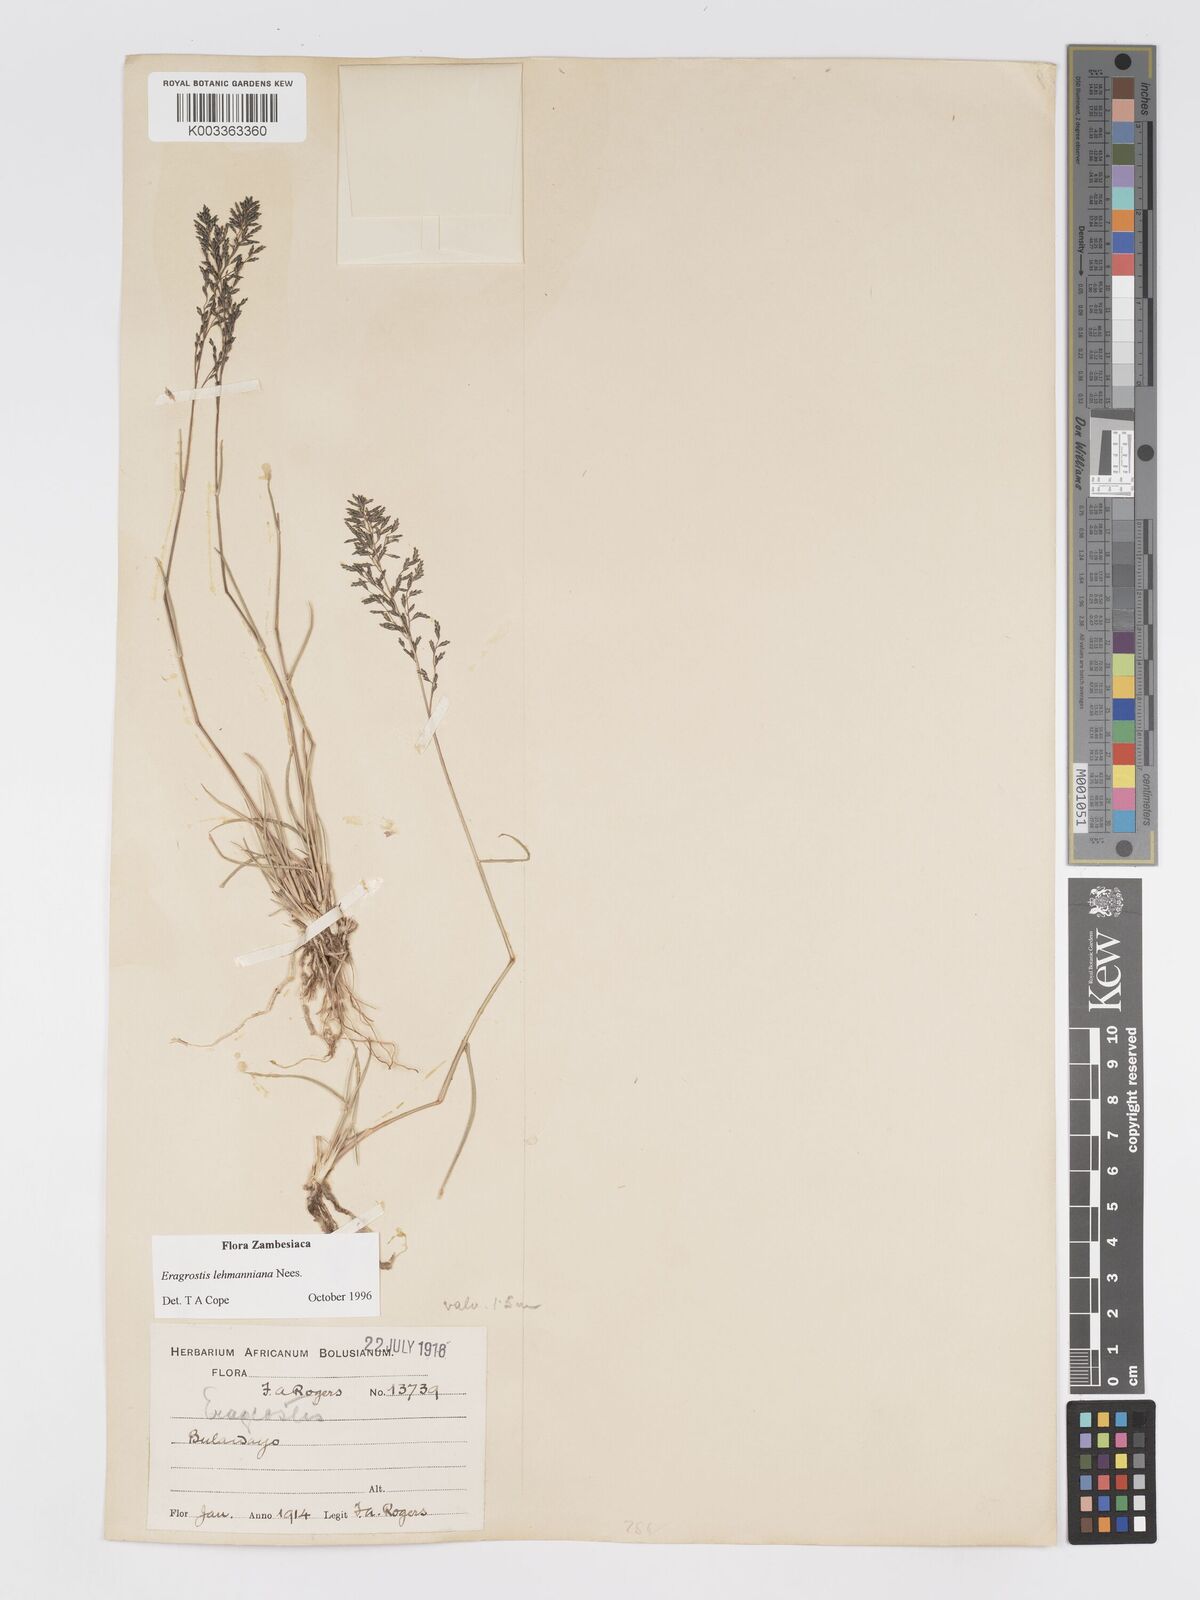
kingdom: Plantae
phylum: Tracheophyta
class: Liliopsida
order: Poales
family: Poaceae
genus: Eragrostis
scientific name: Eragrostis lehmanniana
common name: Lehmann lovegrass
